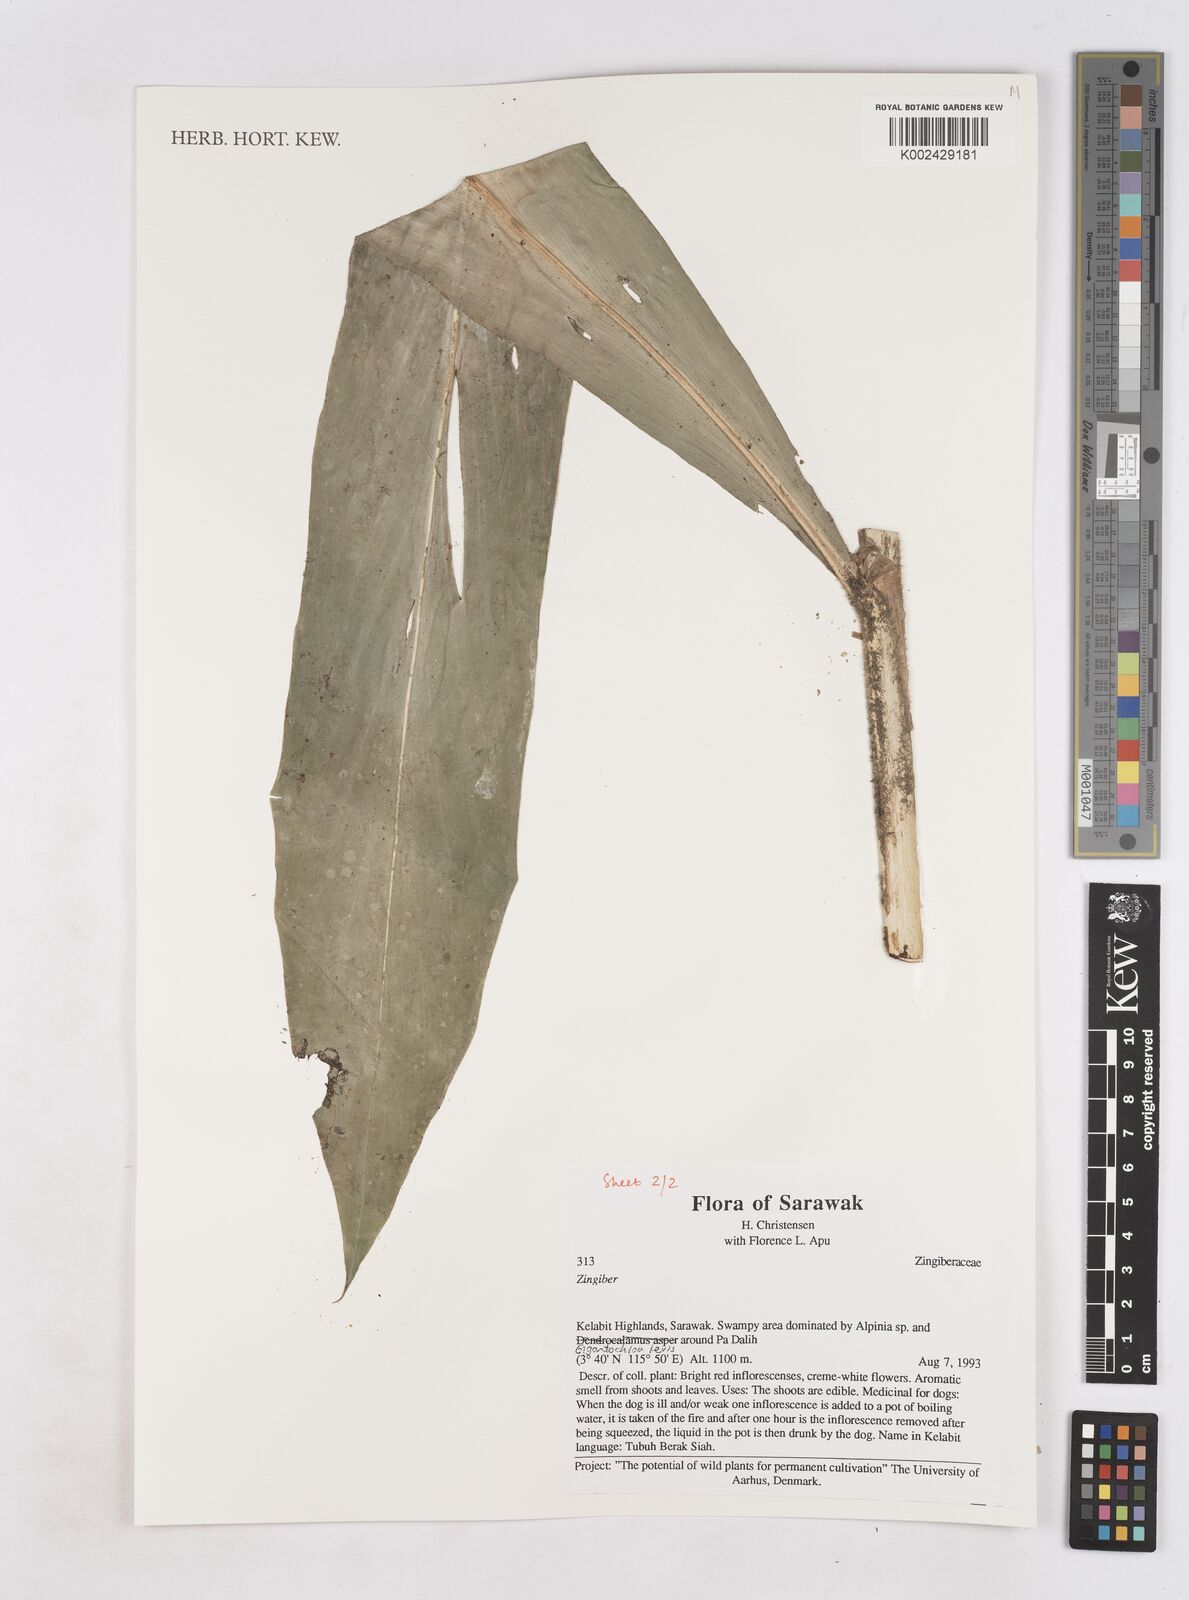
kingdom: Plantae
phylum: Tracheophyta
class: Liliopsida
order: Zingiberales
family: Zingiberaceae
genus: Zingiber
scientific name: Zingiber
